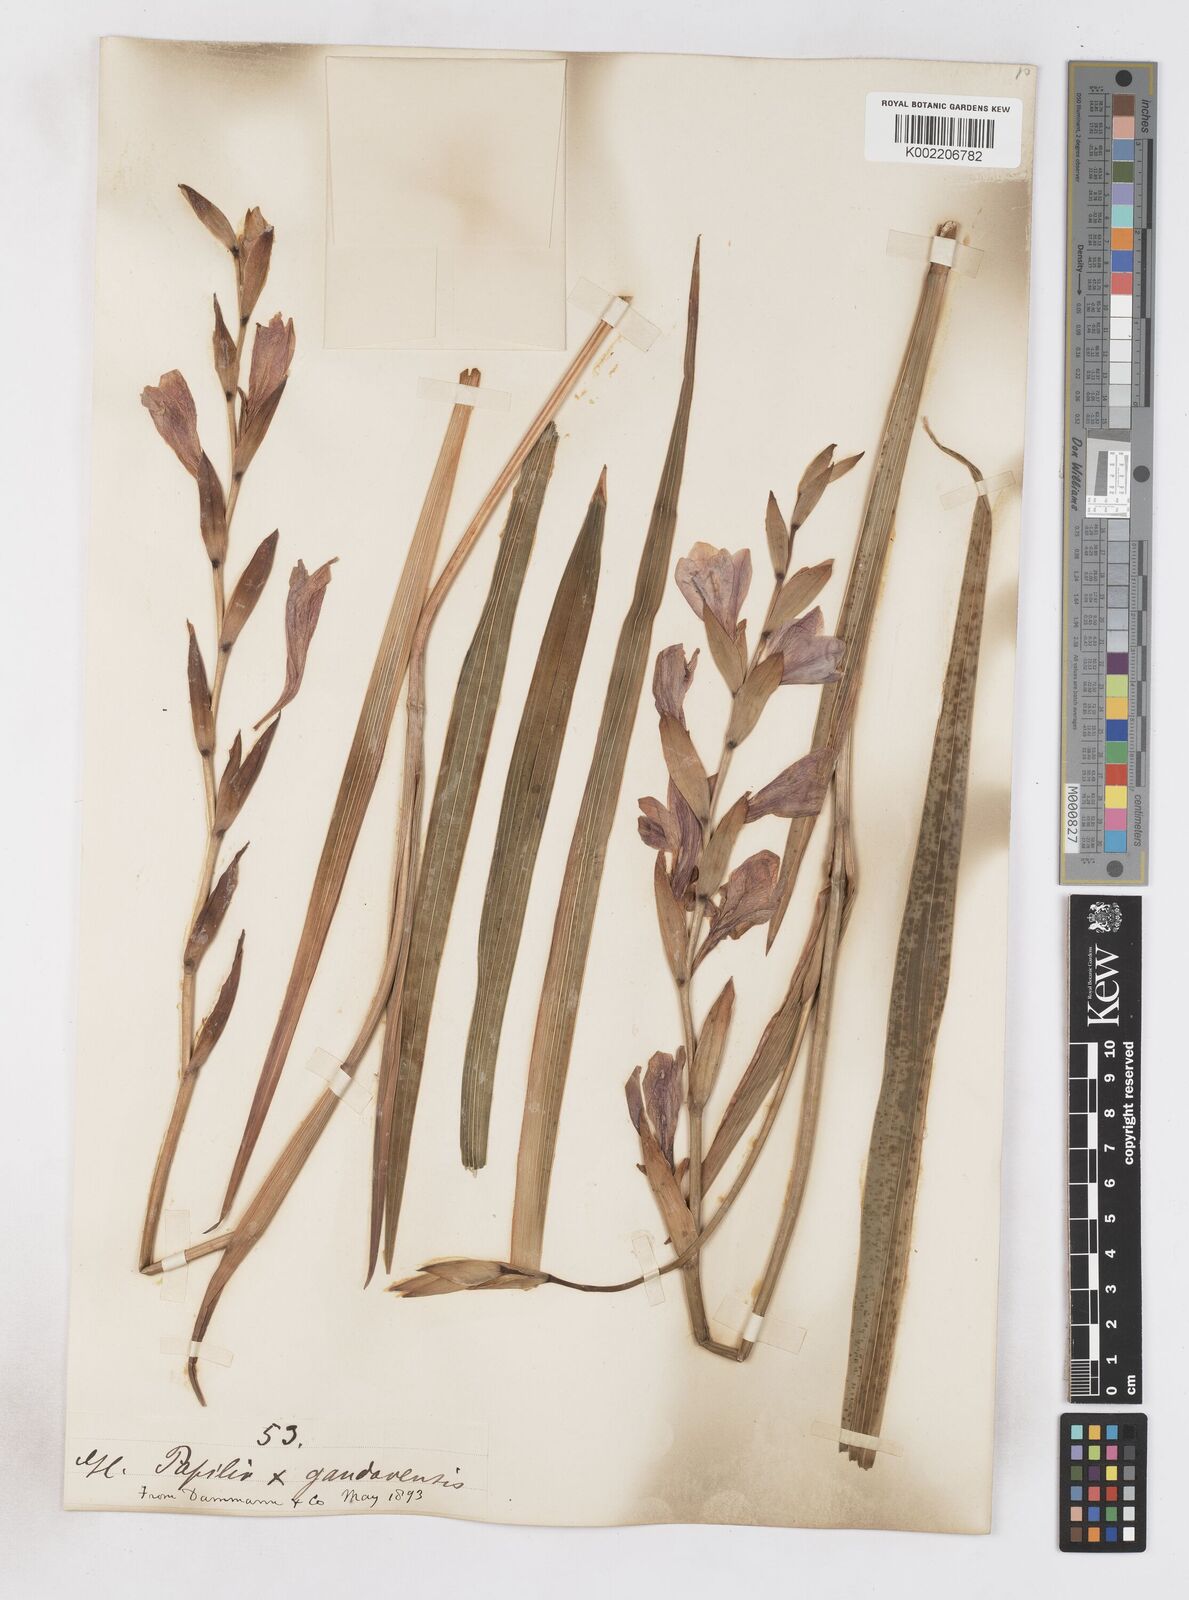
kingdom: Plantae
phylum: Tracheophyta
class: Liliopsida
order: Asparagales
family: Iridaceae
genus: Gladiolus
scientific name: Gladiolus papilio
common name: Goldblotch gladiolus
